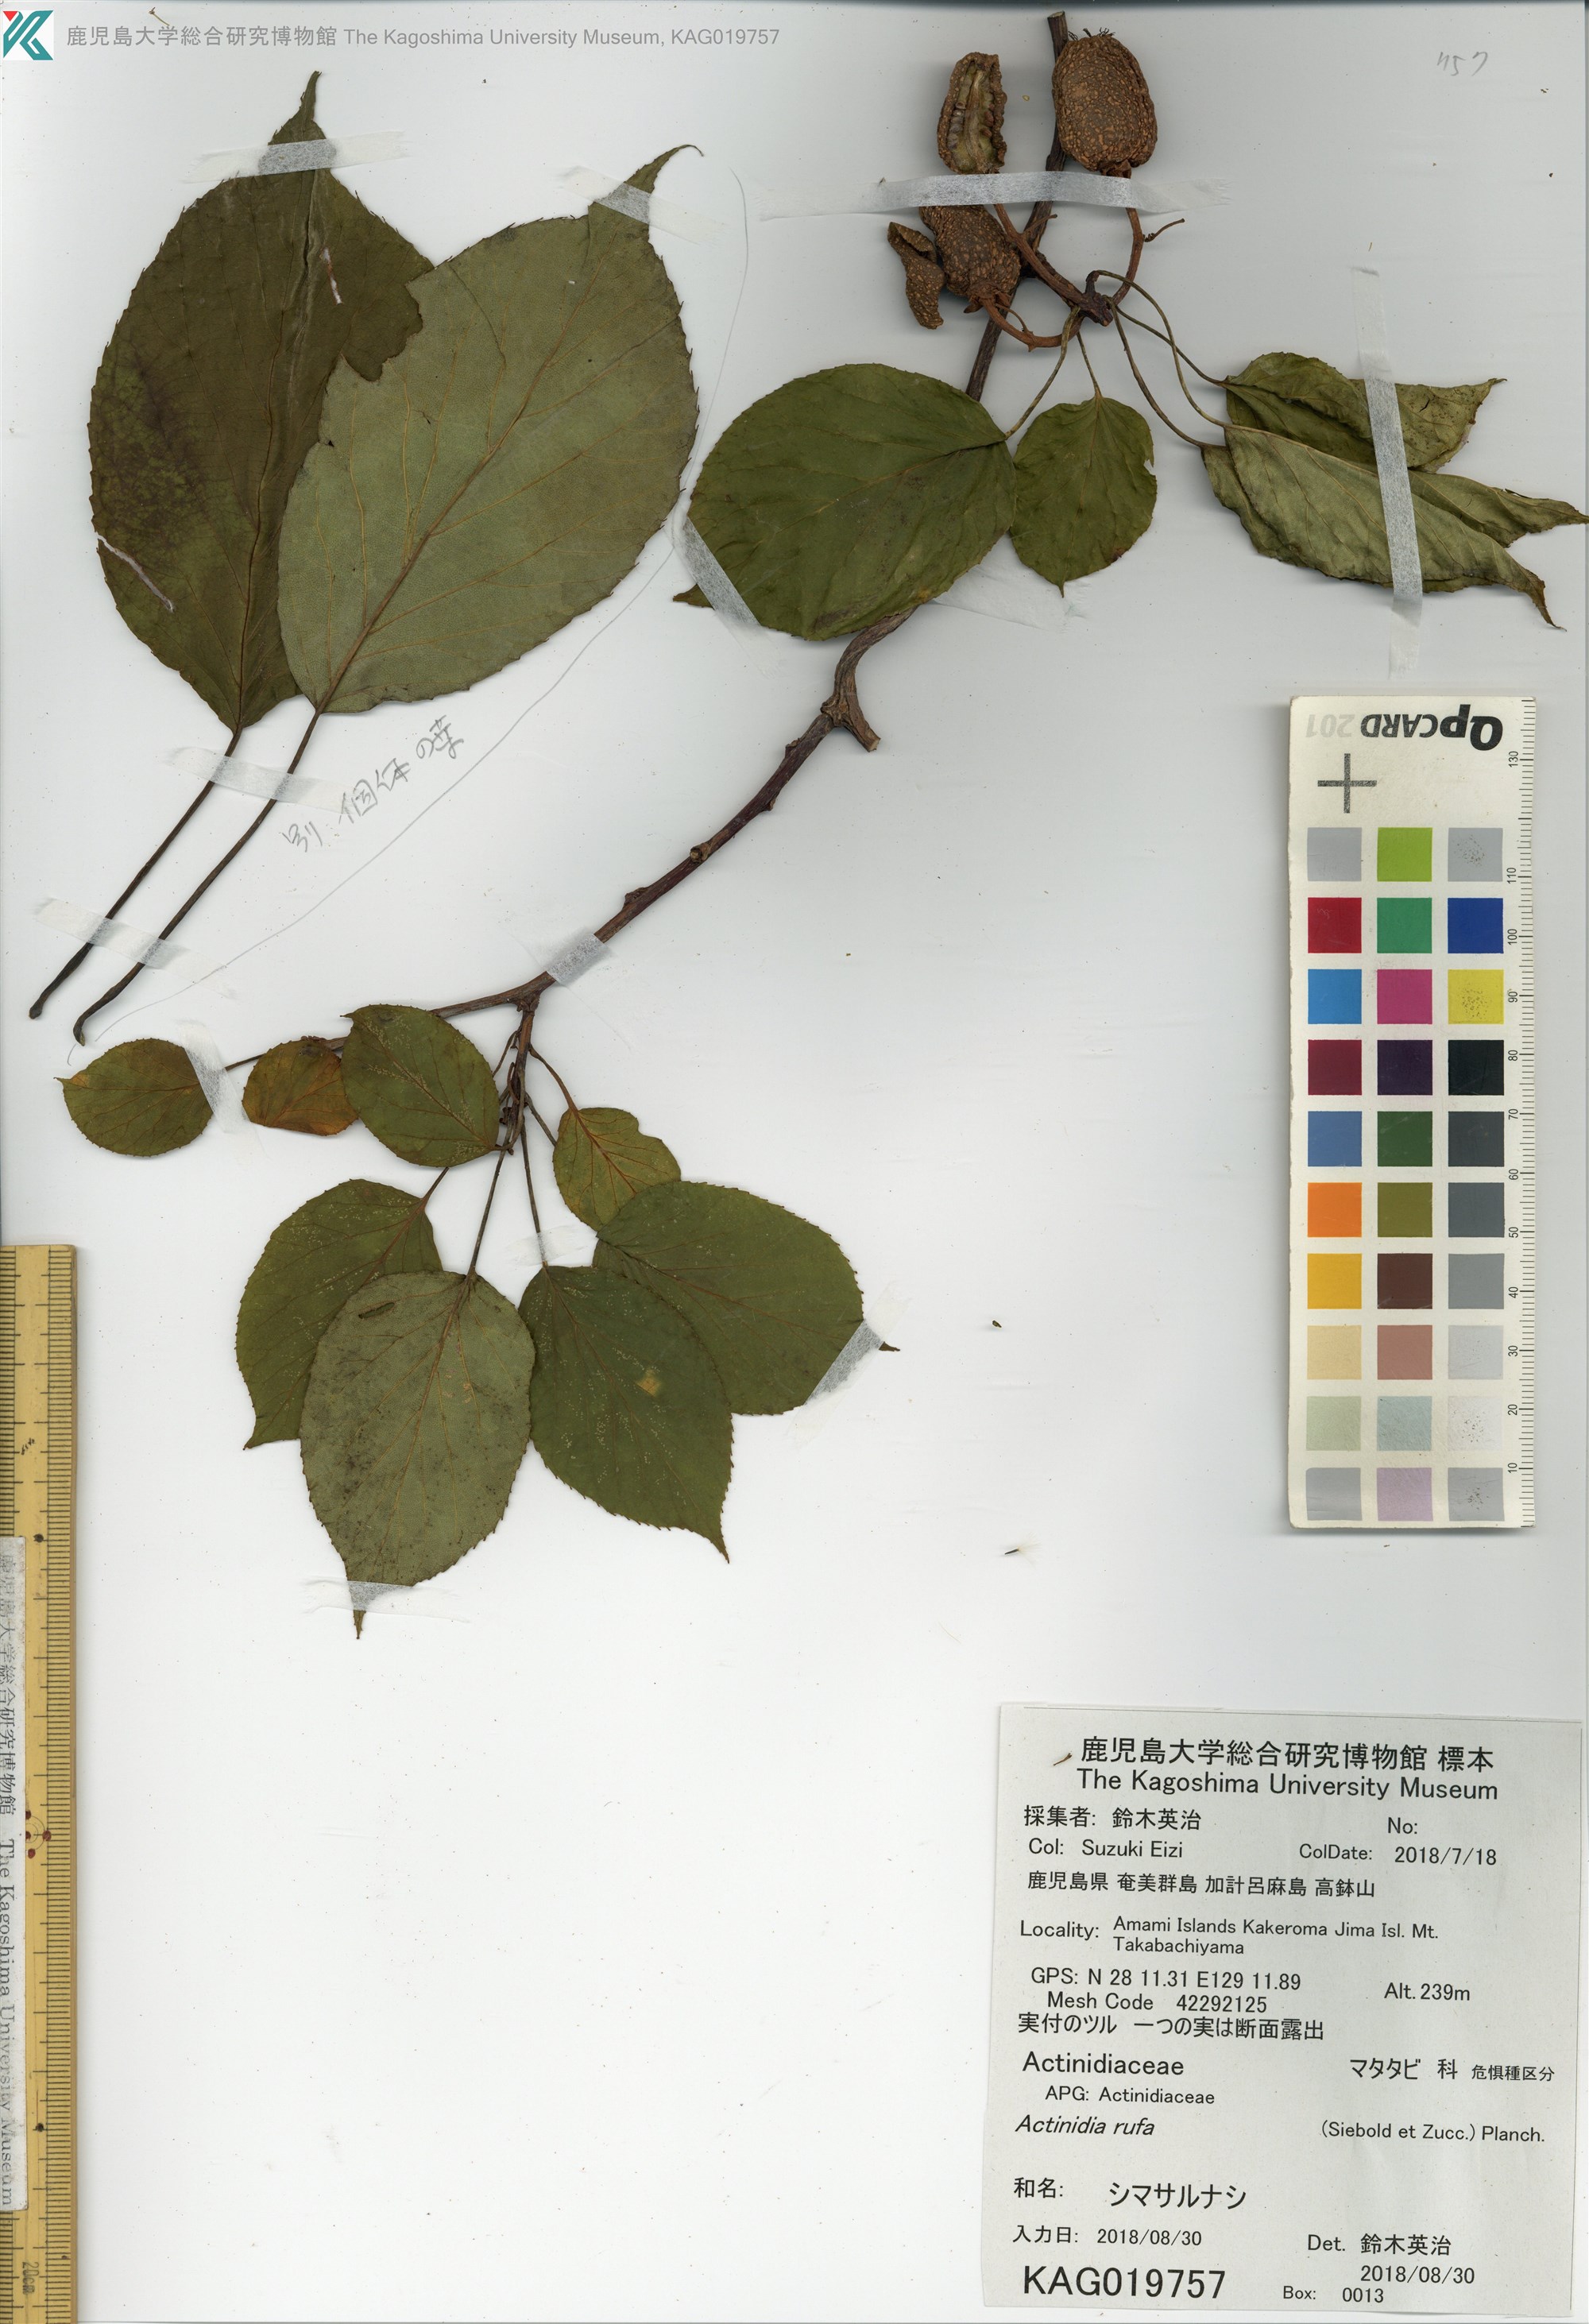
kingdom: Plantae
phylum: Tracheophyta
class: Magnoliopsida
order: Ericales
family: Actinidiaceae
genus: Actinidia
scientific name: Actinidia rufa
